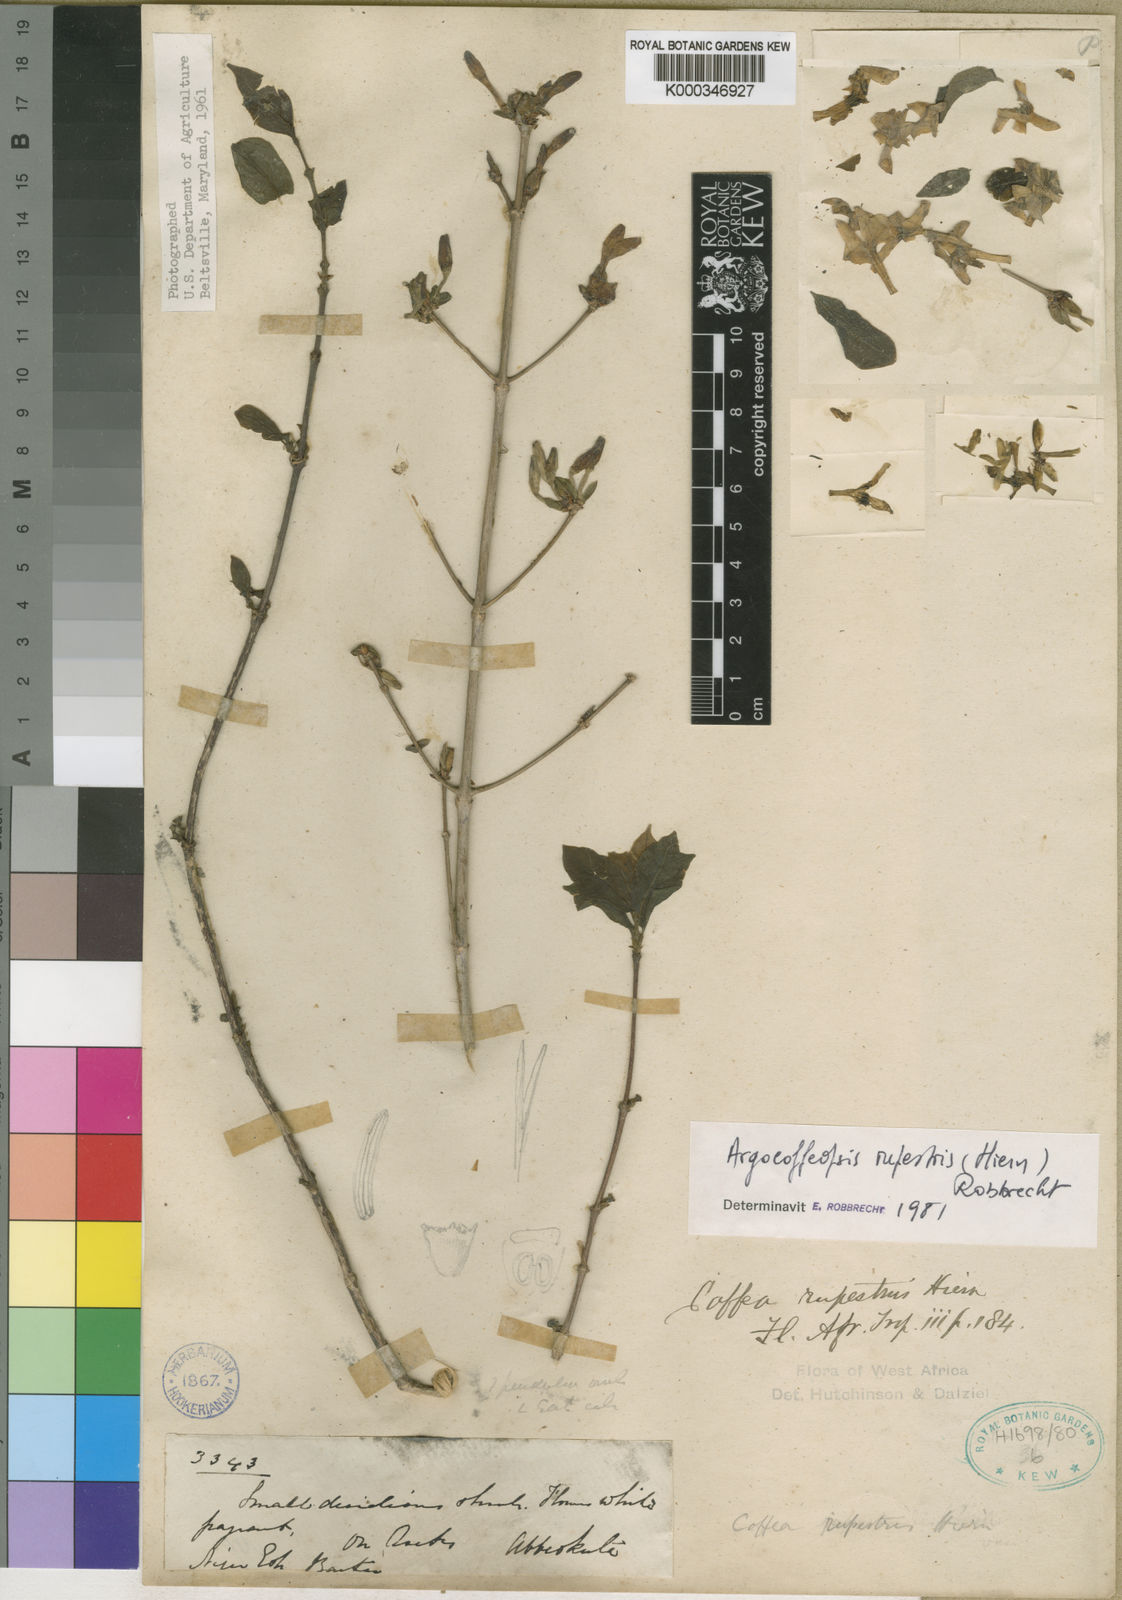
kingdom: Plantae
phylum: Tracheophyta
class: Magnoliopsida
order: Gentianales
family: Rubiaceae
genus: Argocoffeopsis
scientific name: Argocoffeopsis rupestris
